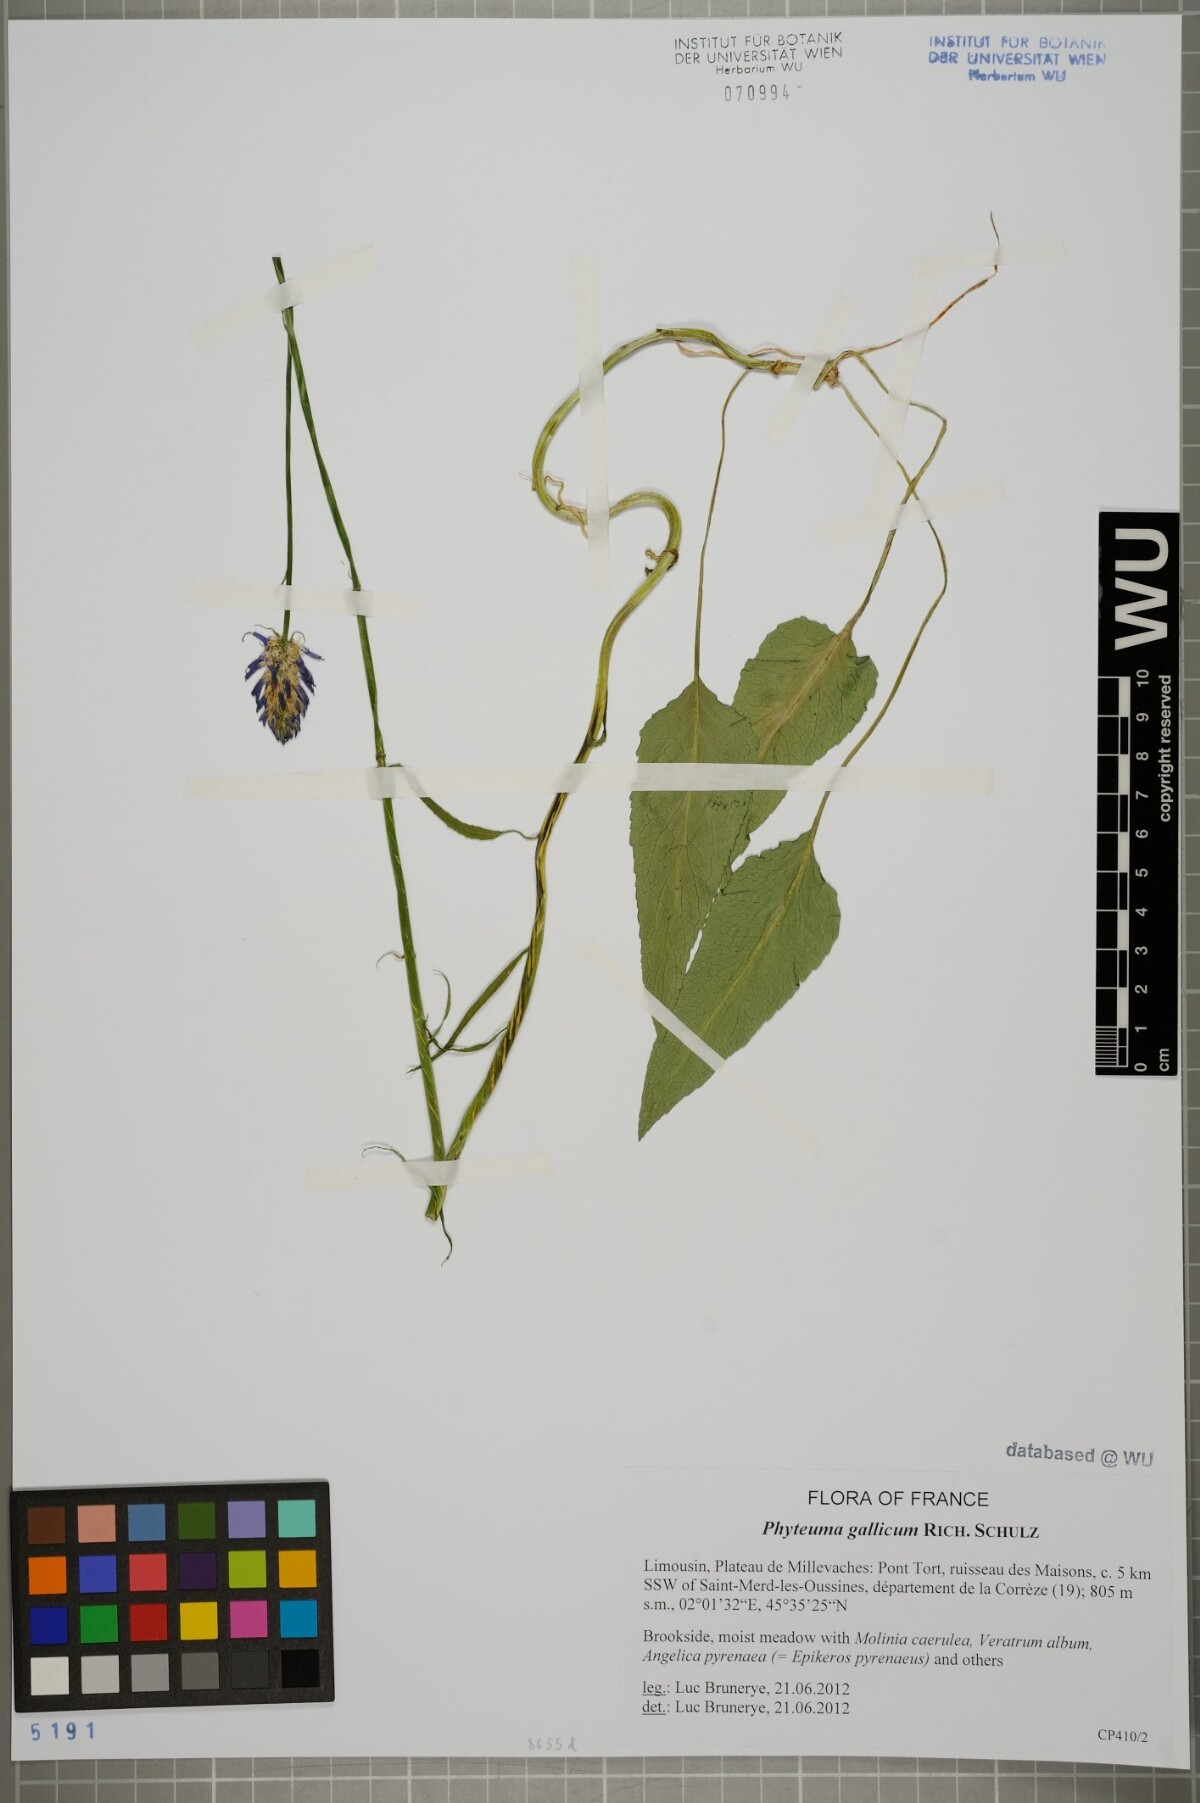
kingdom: Plantae
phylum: Tracheophyta
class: Magnoliopsida
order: Asterales
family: Campanulaceae
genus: Phyteuma
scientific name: Phyteuma gallicum
